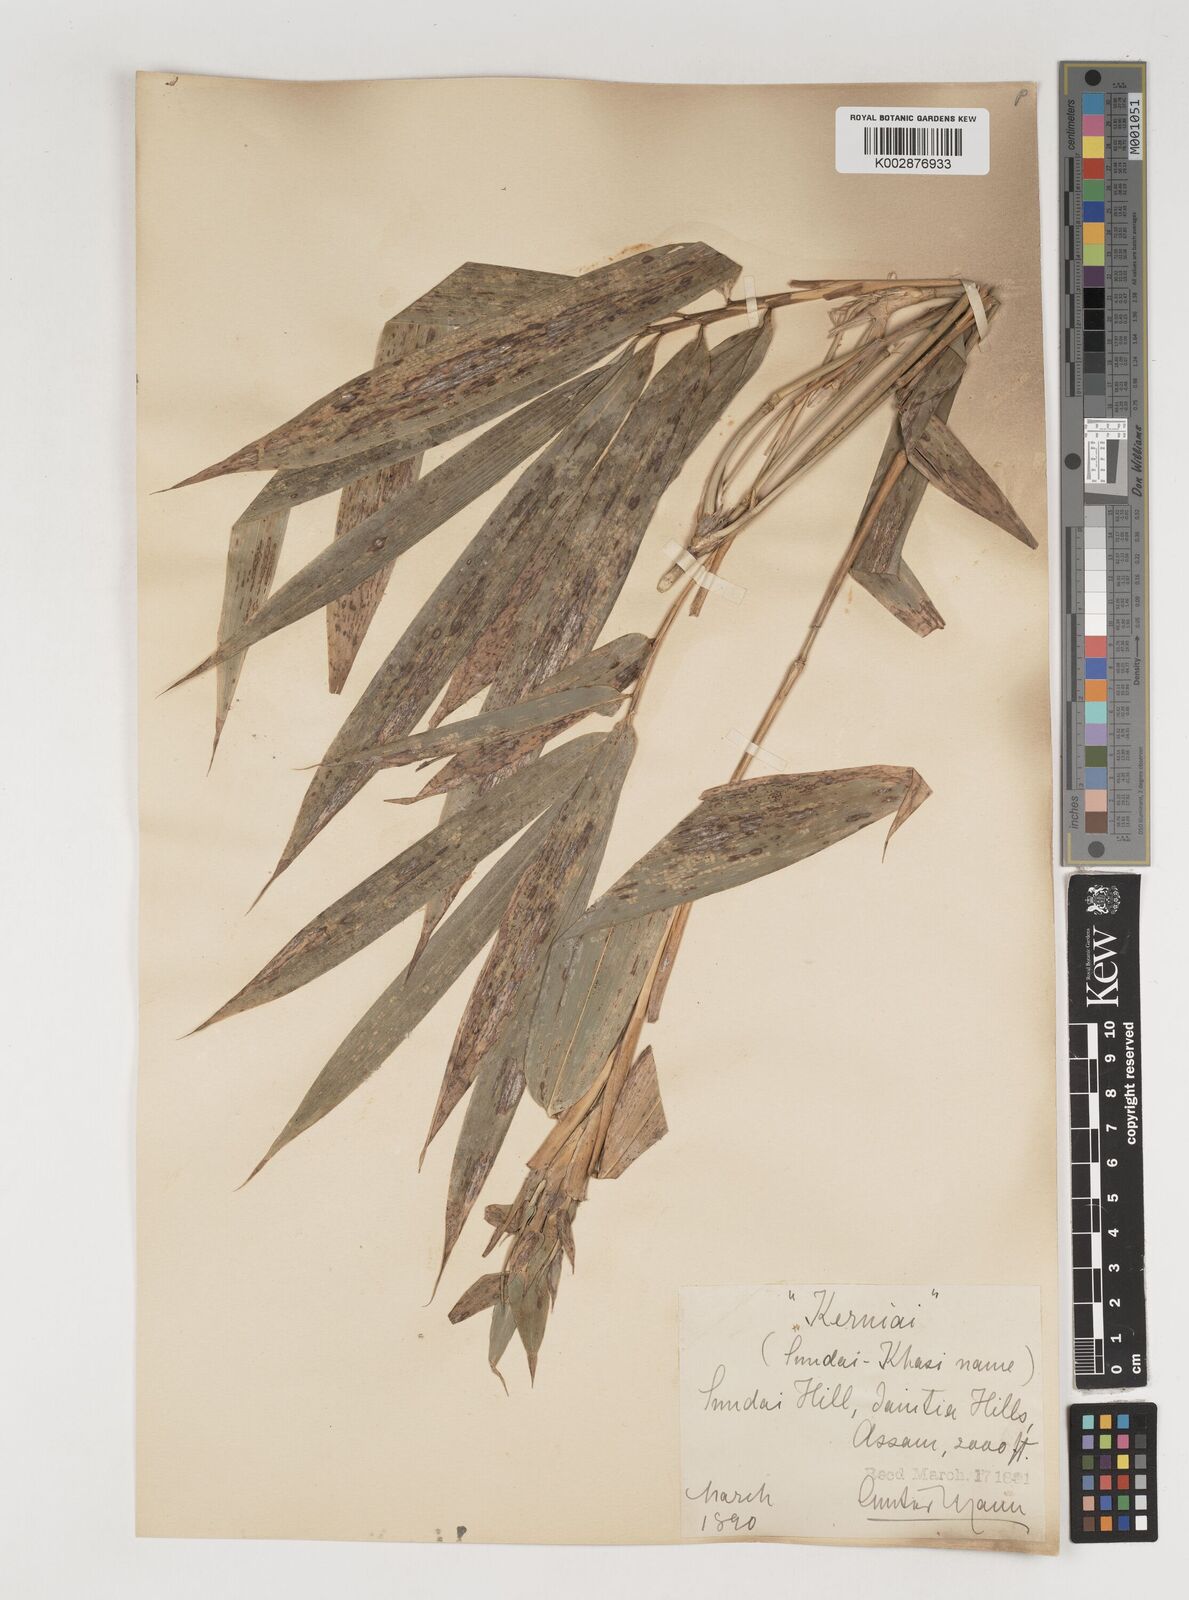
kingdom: Plantae
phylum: Tracheophyta
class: Liliopsida
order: Poales
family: Poaceae
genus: Bambusa
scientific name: Bambusa tulda
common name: Bengal bamboo
